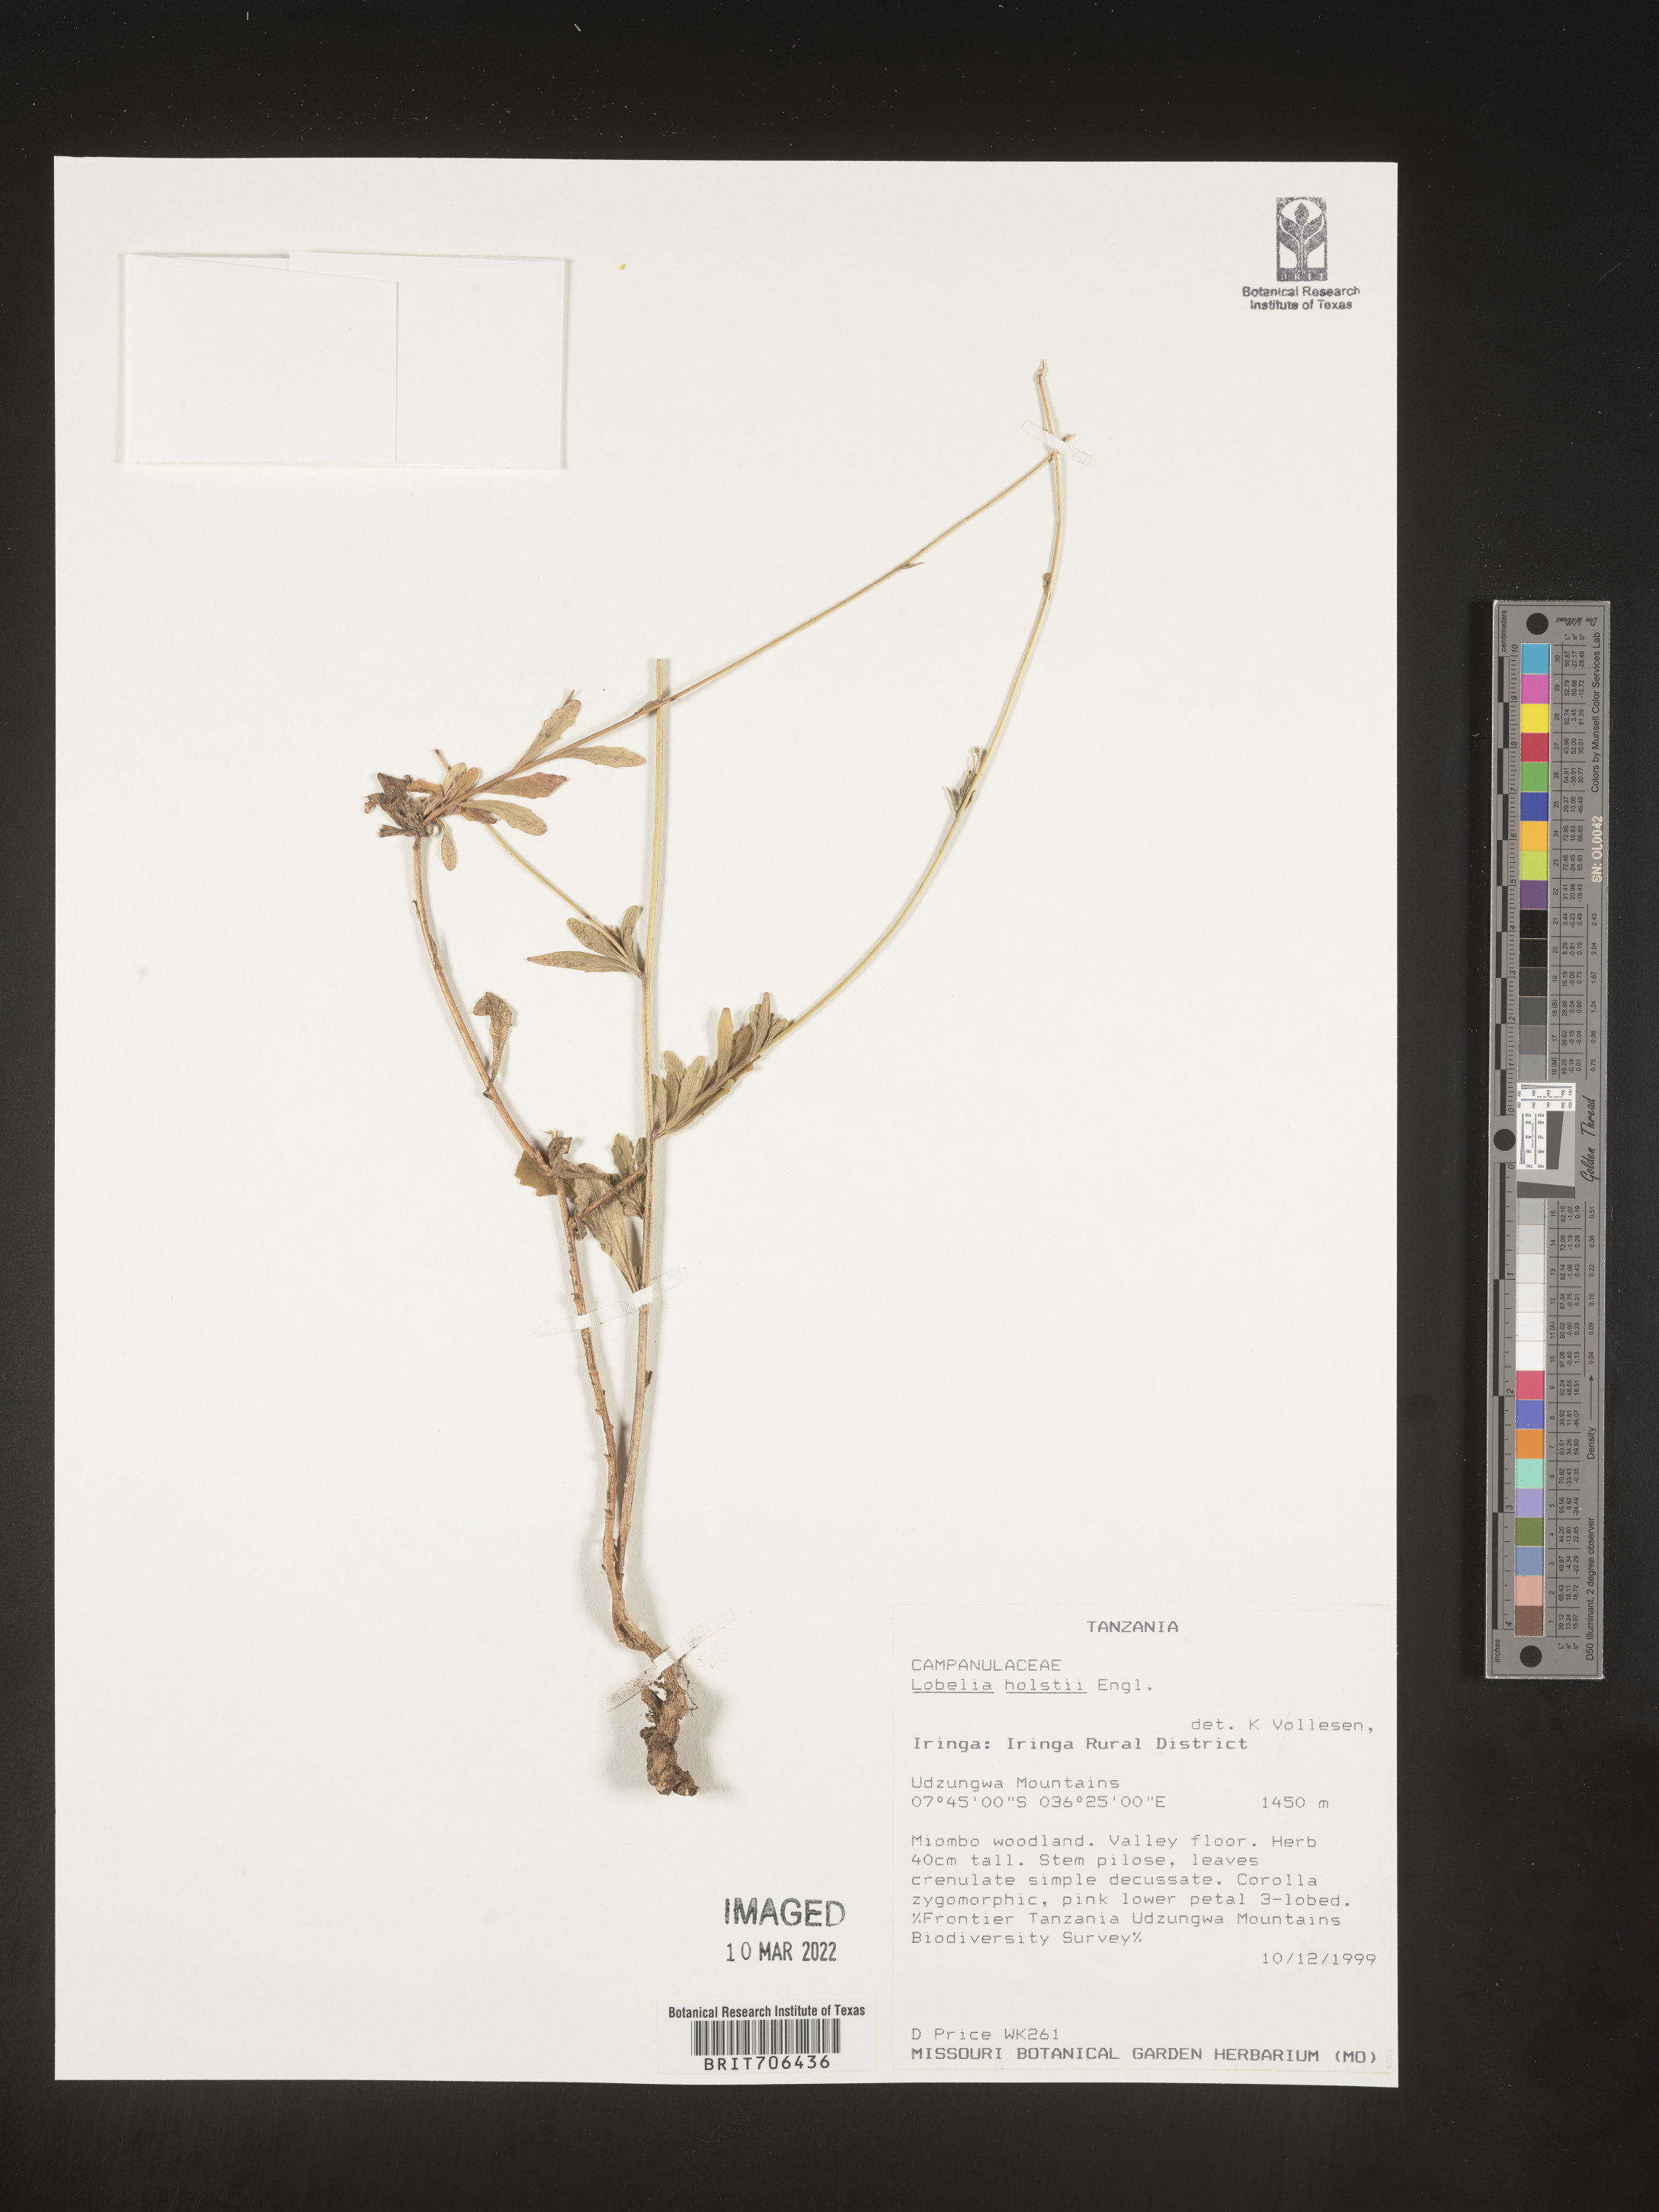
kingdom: Plantae
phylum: Tracheophyta
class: Magnoliopsida
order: Asterales
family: Campanulaceae
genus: Lobelia
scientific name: Lobelia
